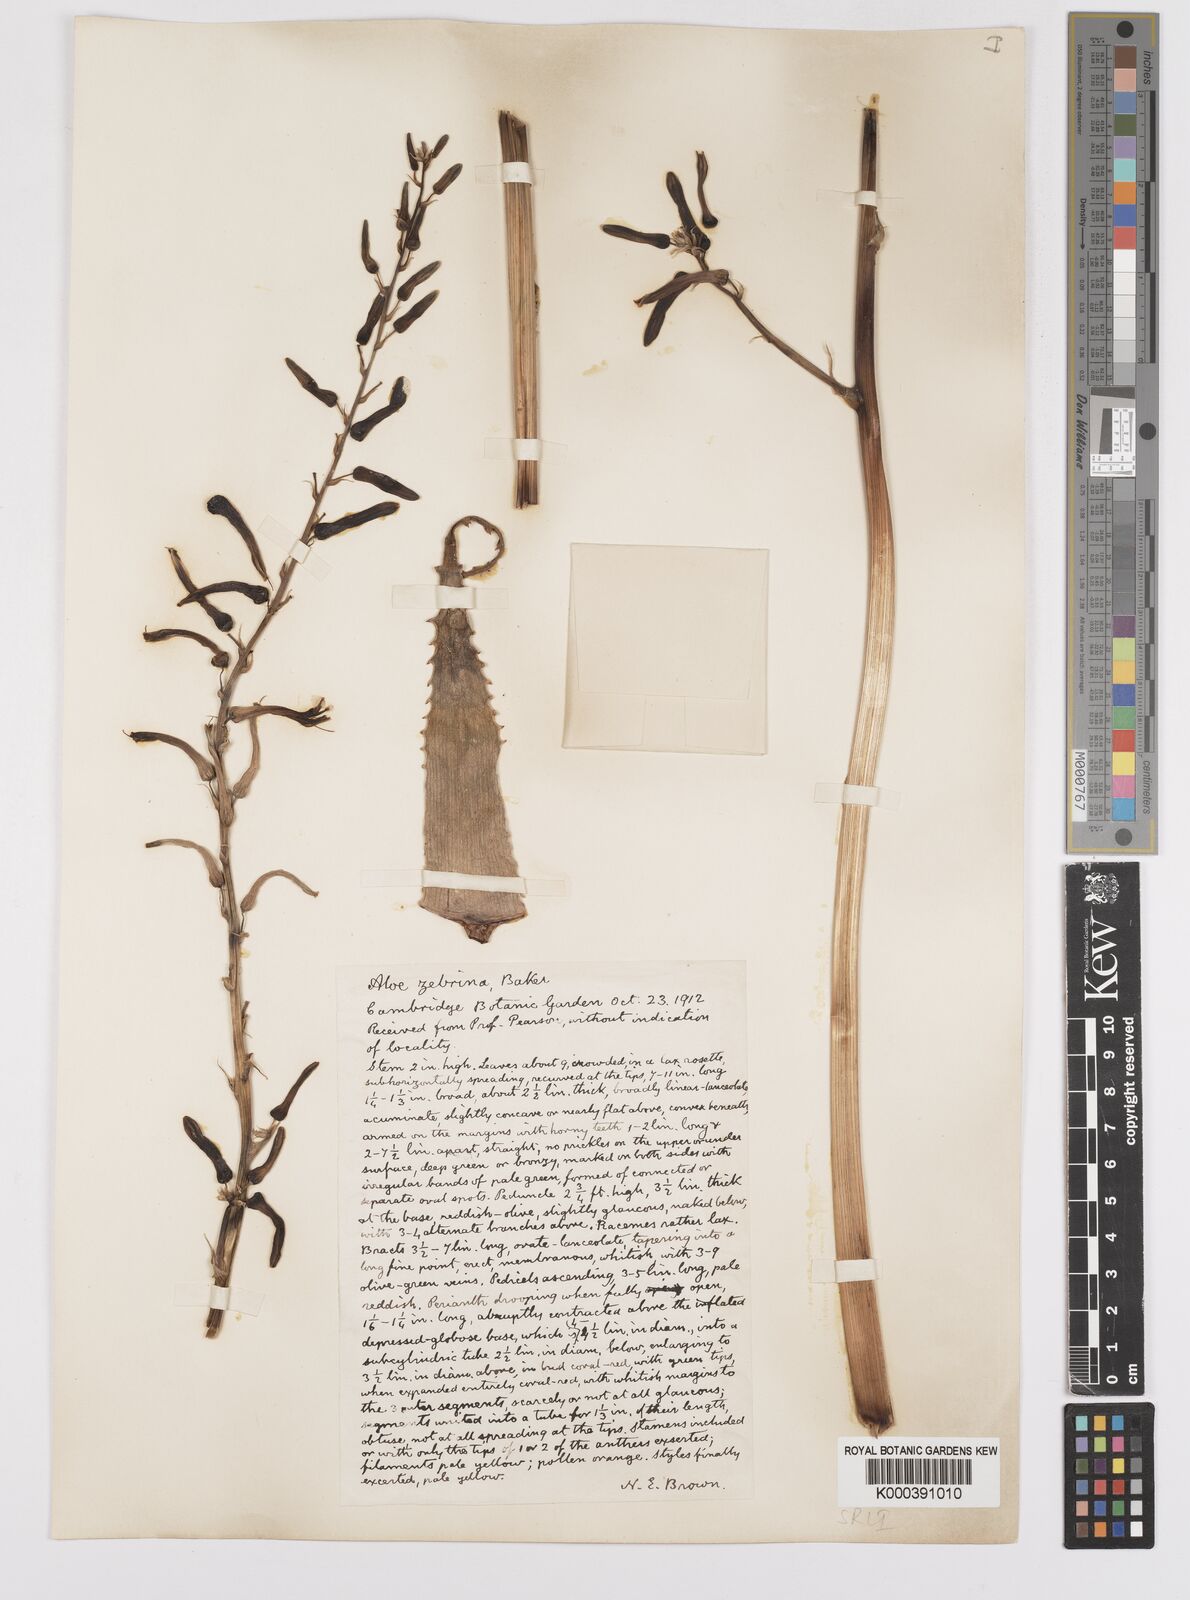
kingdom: Plantae
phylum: Tracheophyta
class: Liliopsida
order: Asparagales
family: Asphodelaceae
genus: Aloe
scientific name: Aloe zebrina
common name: Zebra-leaf aloe
